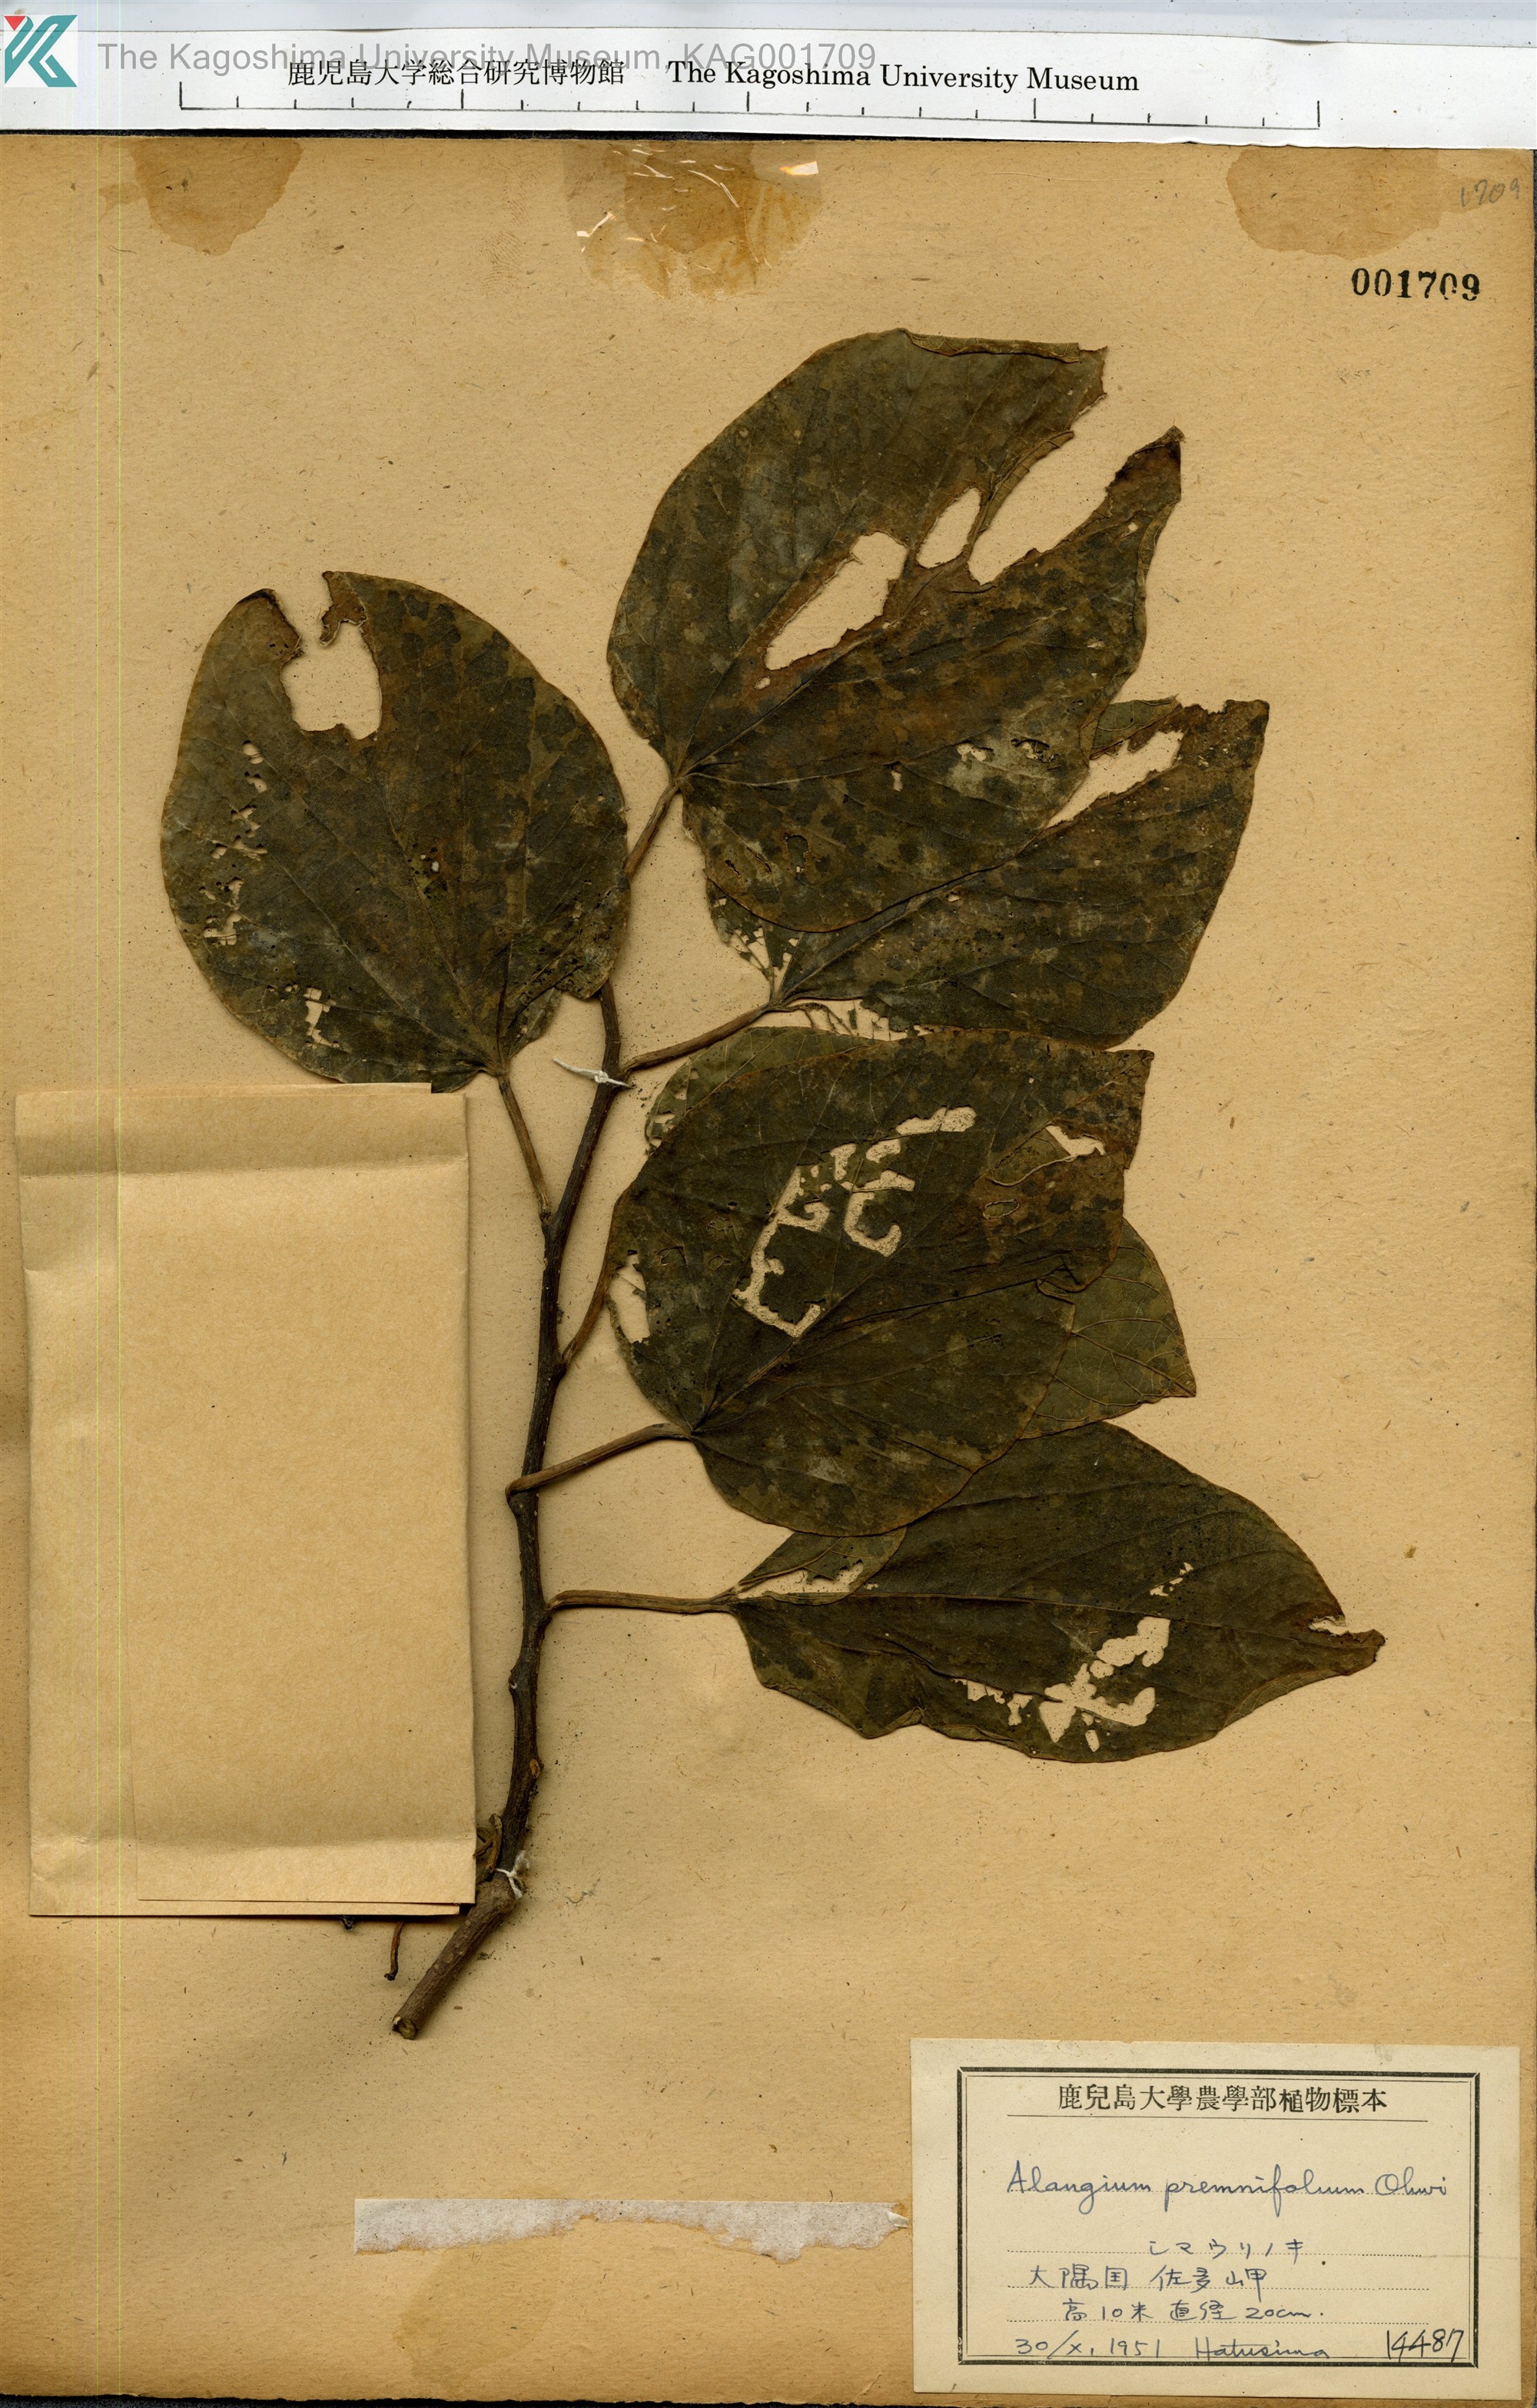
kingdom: Plantae
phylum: Tracheophyta
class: Magnoliopsida
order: Cornales
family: Cornaceae
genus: Alangium
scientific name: Alangium premnifolium
